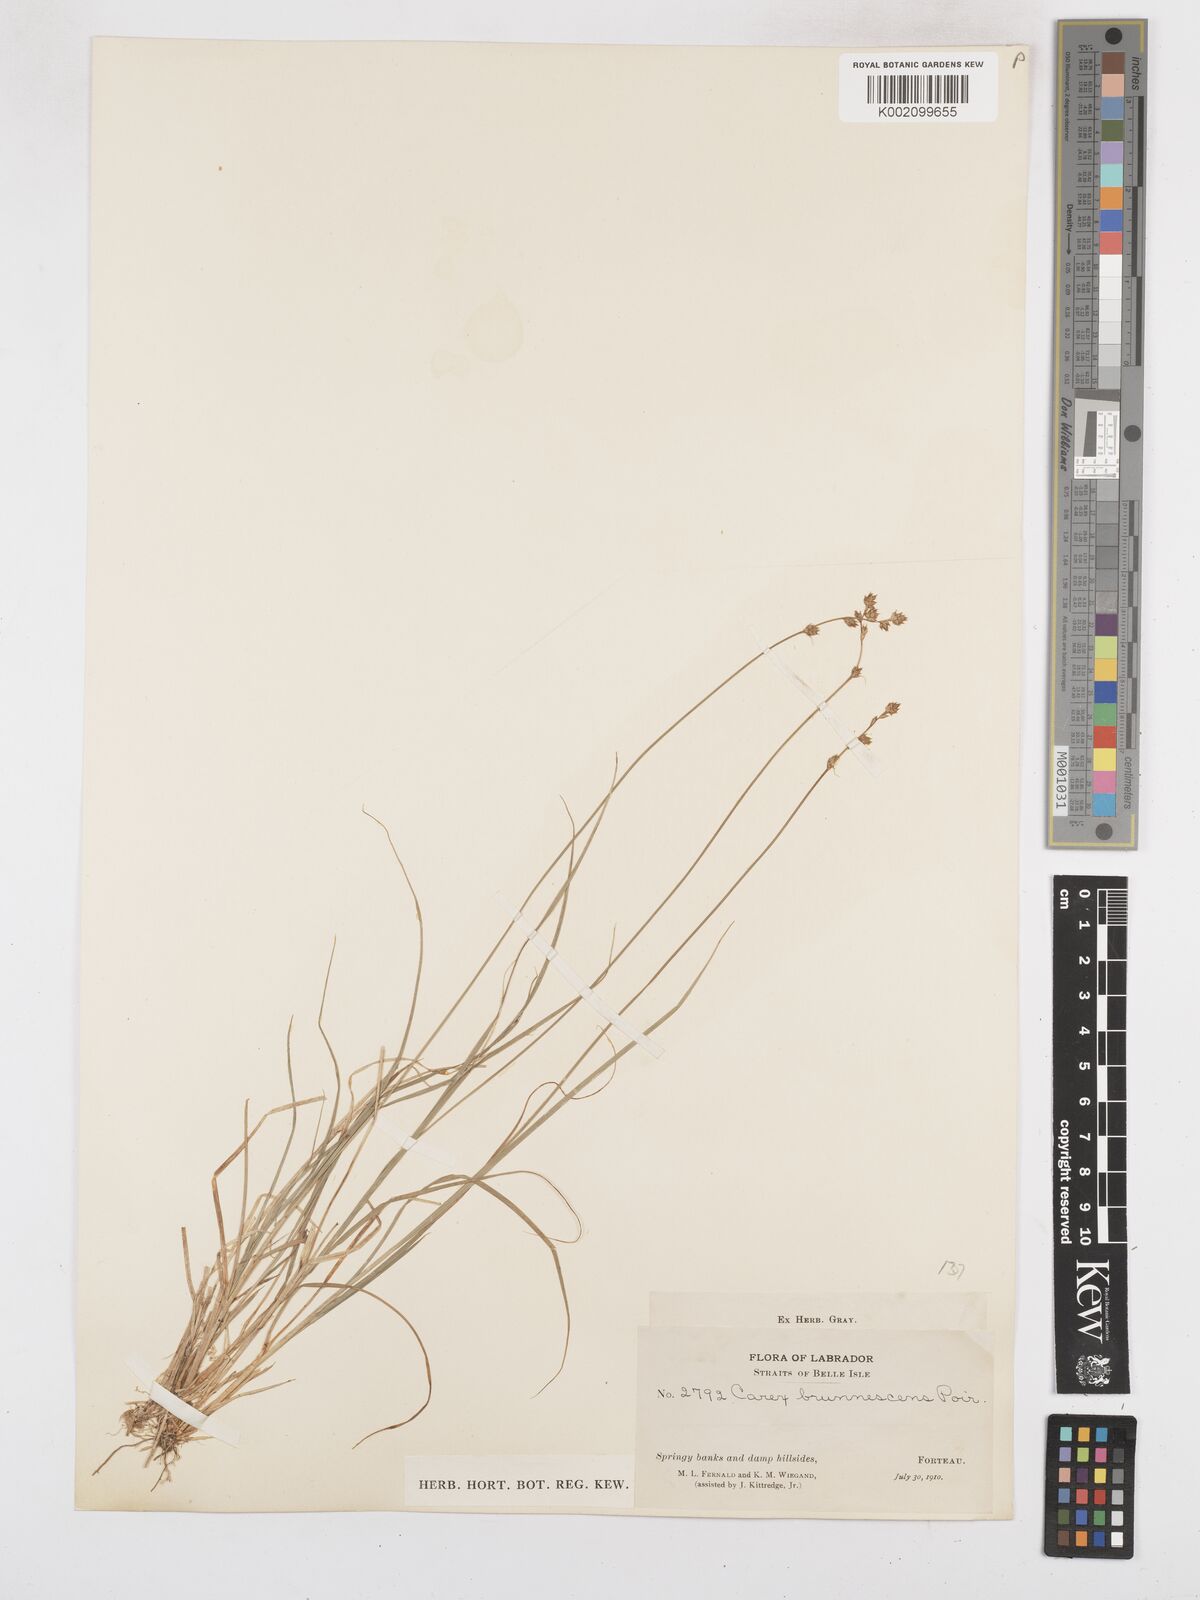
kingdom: Plantae
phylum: Tracheophyta
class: Liliopsida
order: Poales
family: Cyperaceae
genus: Carex
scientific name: Carex brunnescens
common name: Brown sedge
